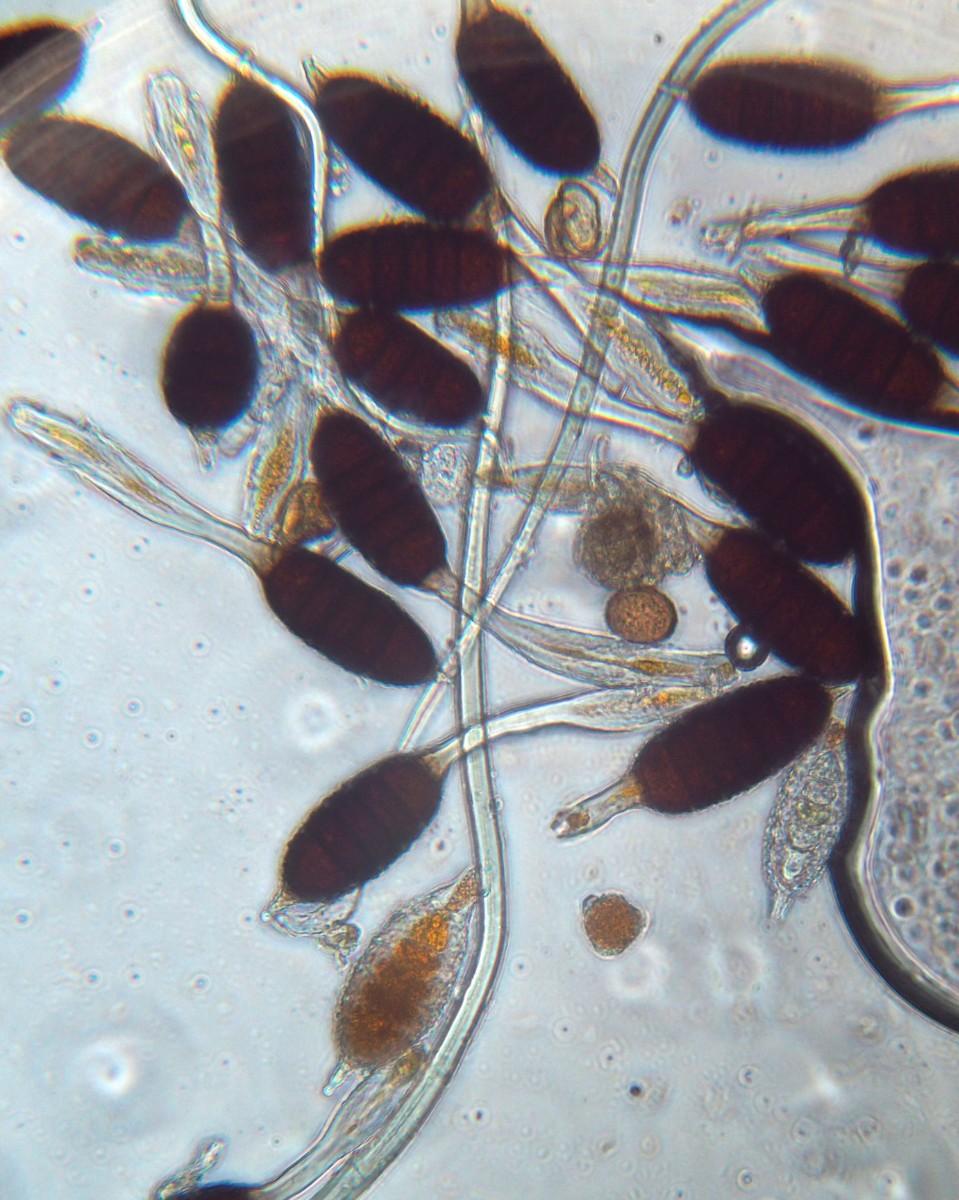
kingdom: Fungi
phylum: Basidiomycota
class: Pucciniomycetes
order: Pucciniales
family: Phragmidiaceae
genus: Phragmidium
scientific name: Phragmidium tuberculatum
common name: Rose rust
